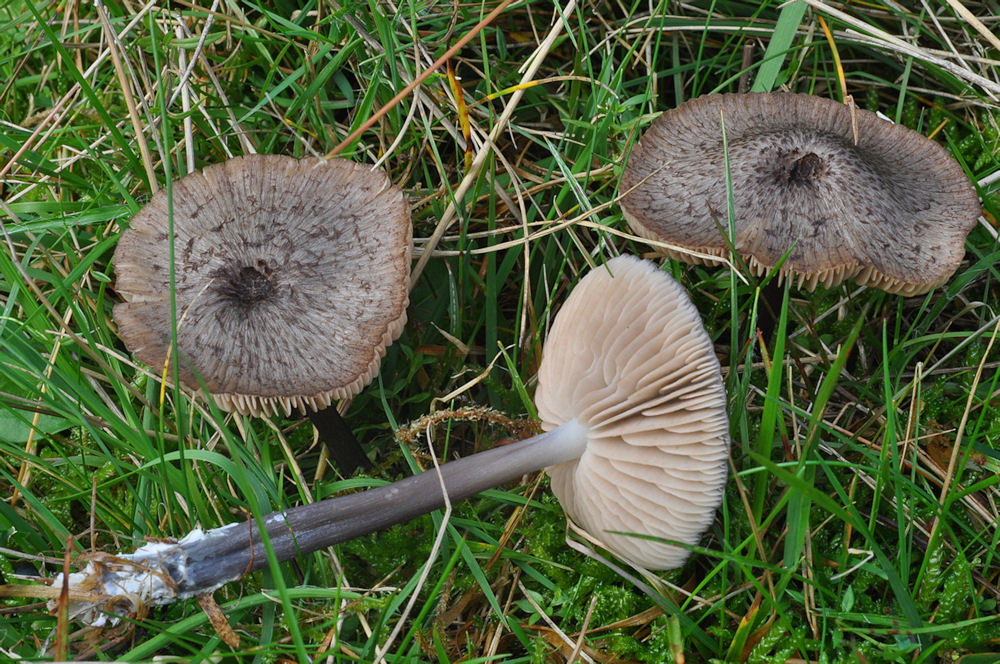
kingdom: Fungi
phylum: Basidiomycota
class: Agaricomycetes
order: Agaricales
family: Entolomataceae
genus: Entoloma
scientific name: Entoloma viiduense
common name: purpurbrun rødblad
